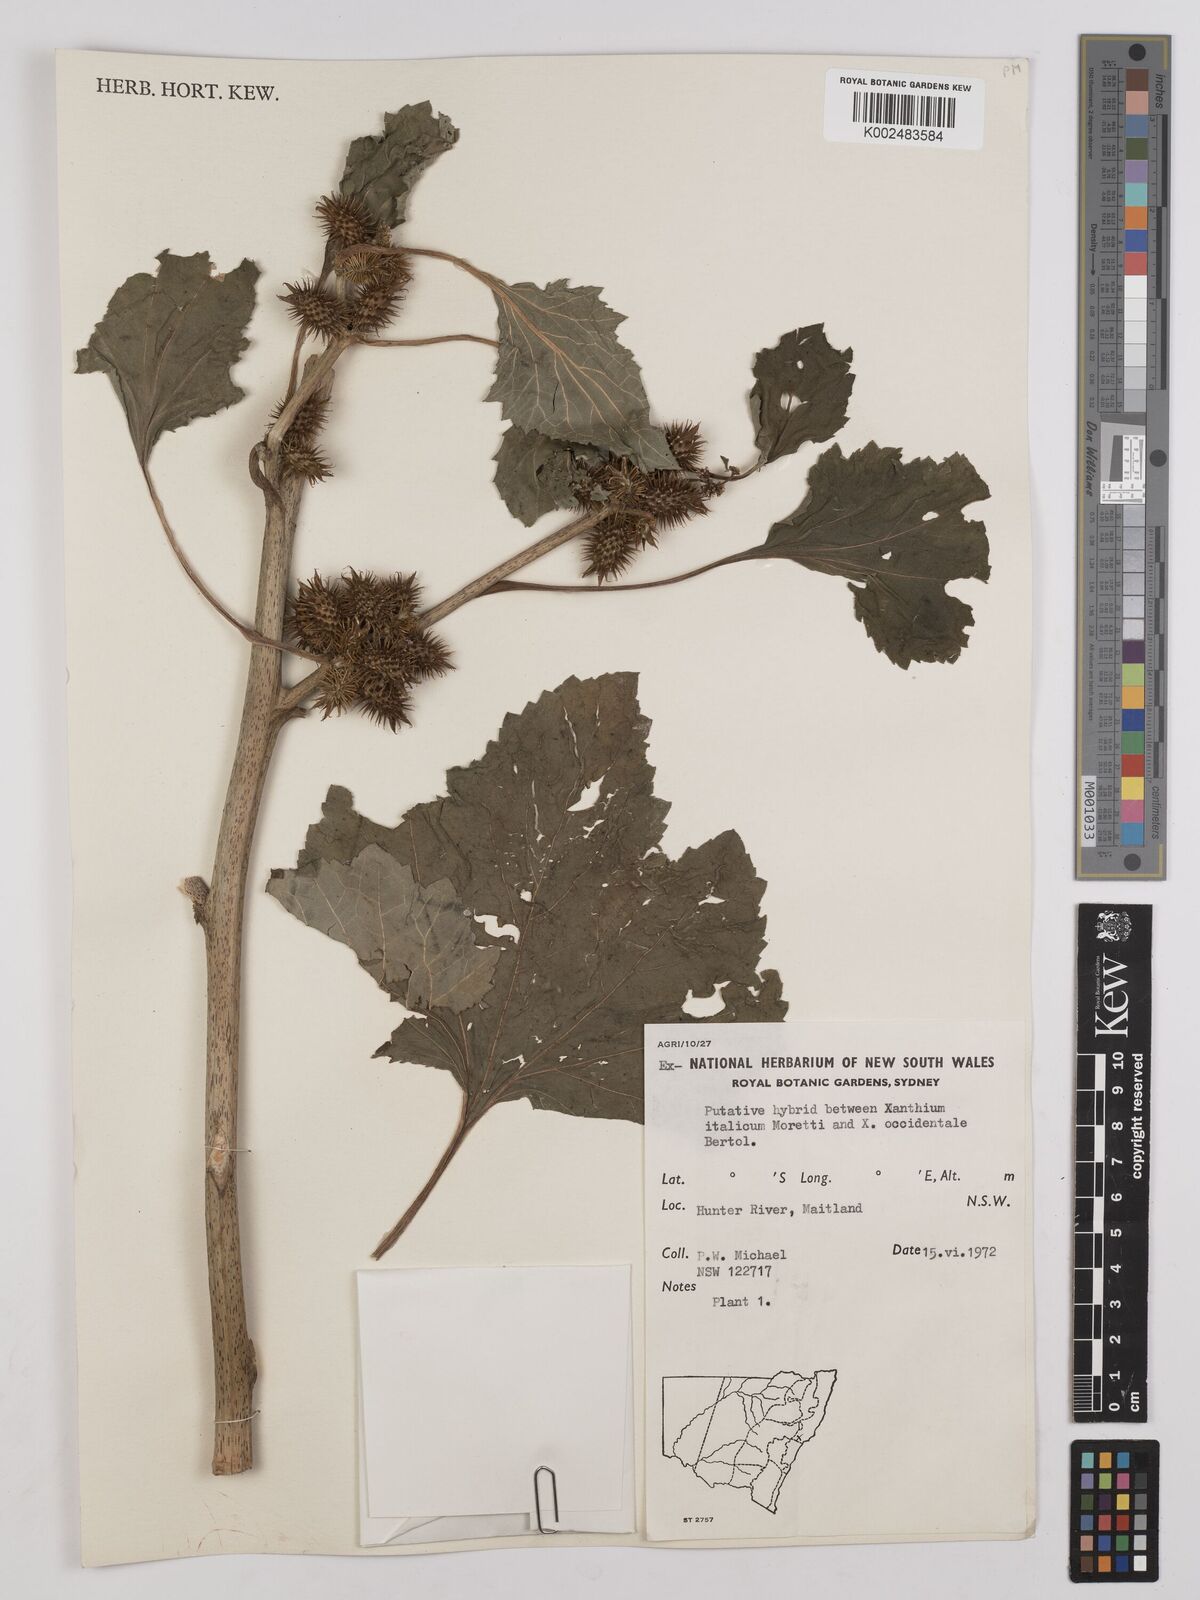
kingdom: Plantae
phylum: Tracheophyta
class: Magnoliopsida
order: Asterales
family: Asteraceae
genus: Xanthium
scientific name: Xanthium
